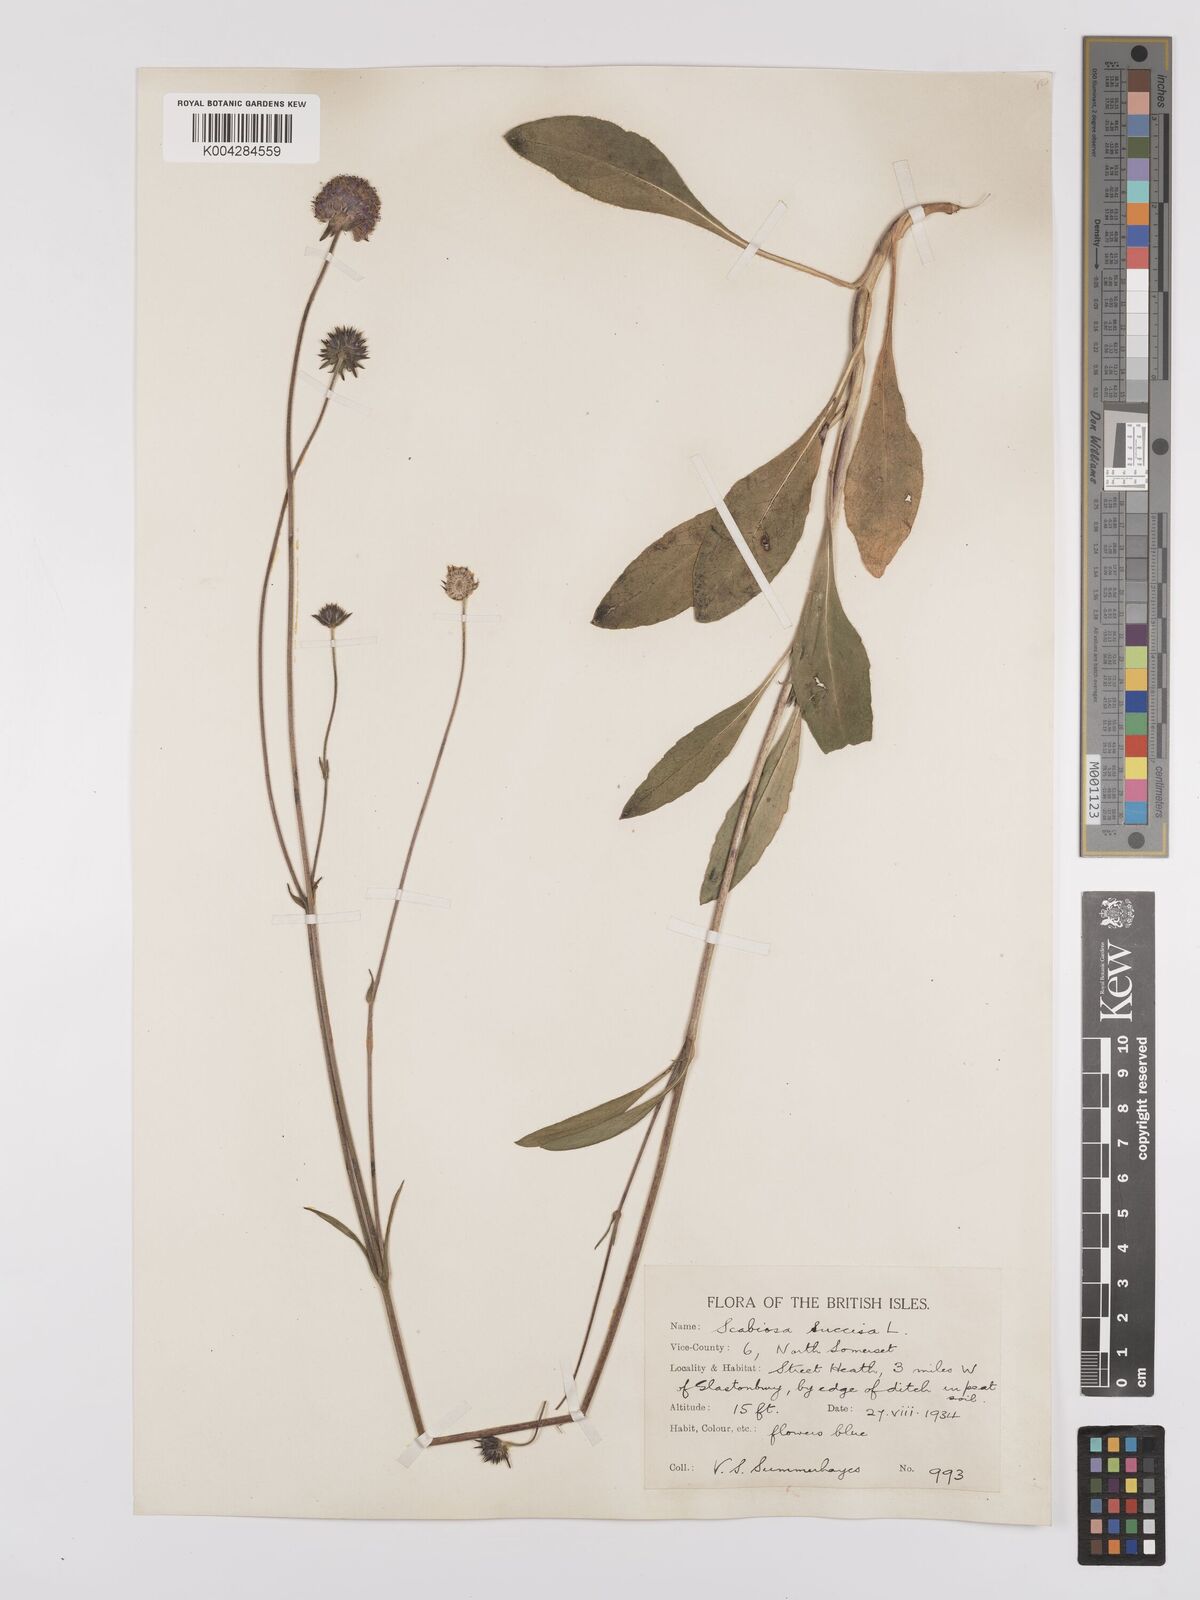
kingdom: Plantae
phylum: Tracheophyta
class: Magnoliopsida
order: Dipsacales
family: Caprifoliaceae
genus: Succisa
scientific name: Succisa pratensis
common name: Devil's-bit
